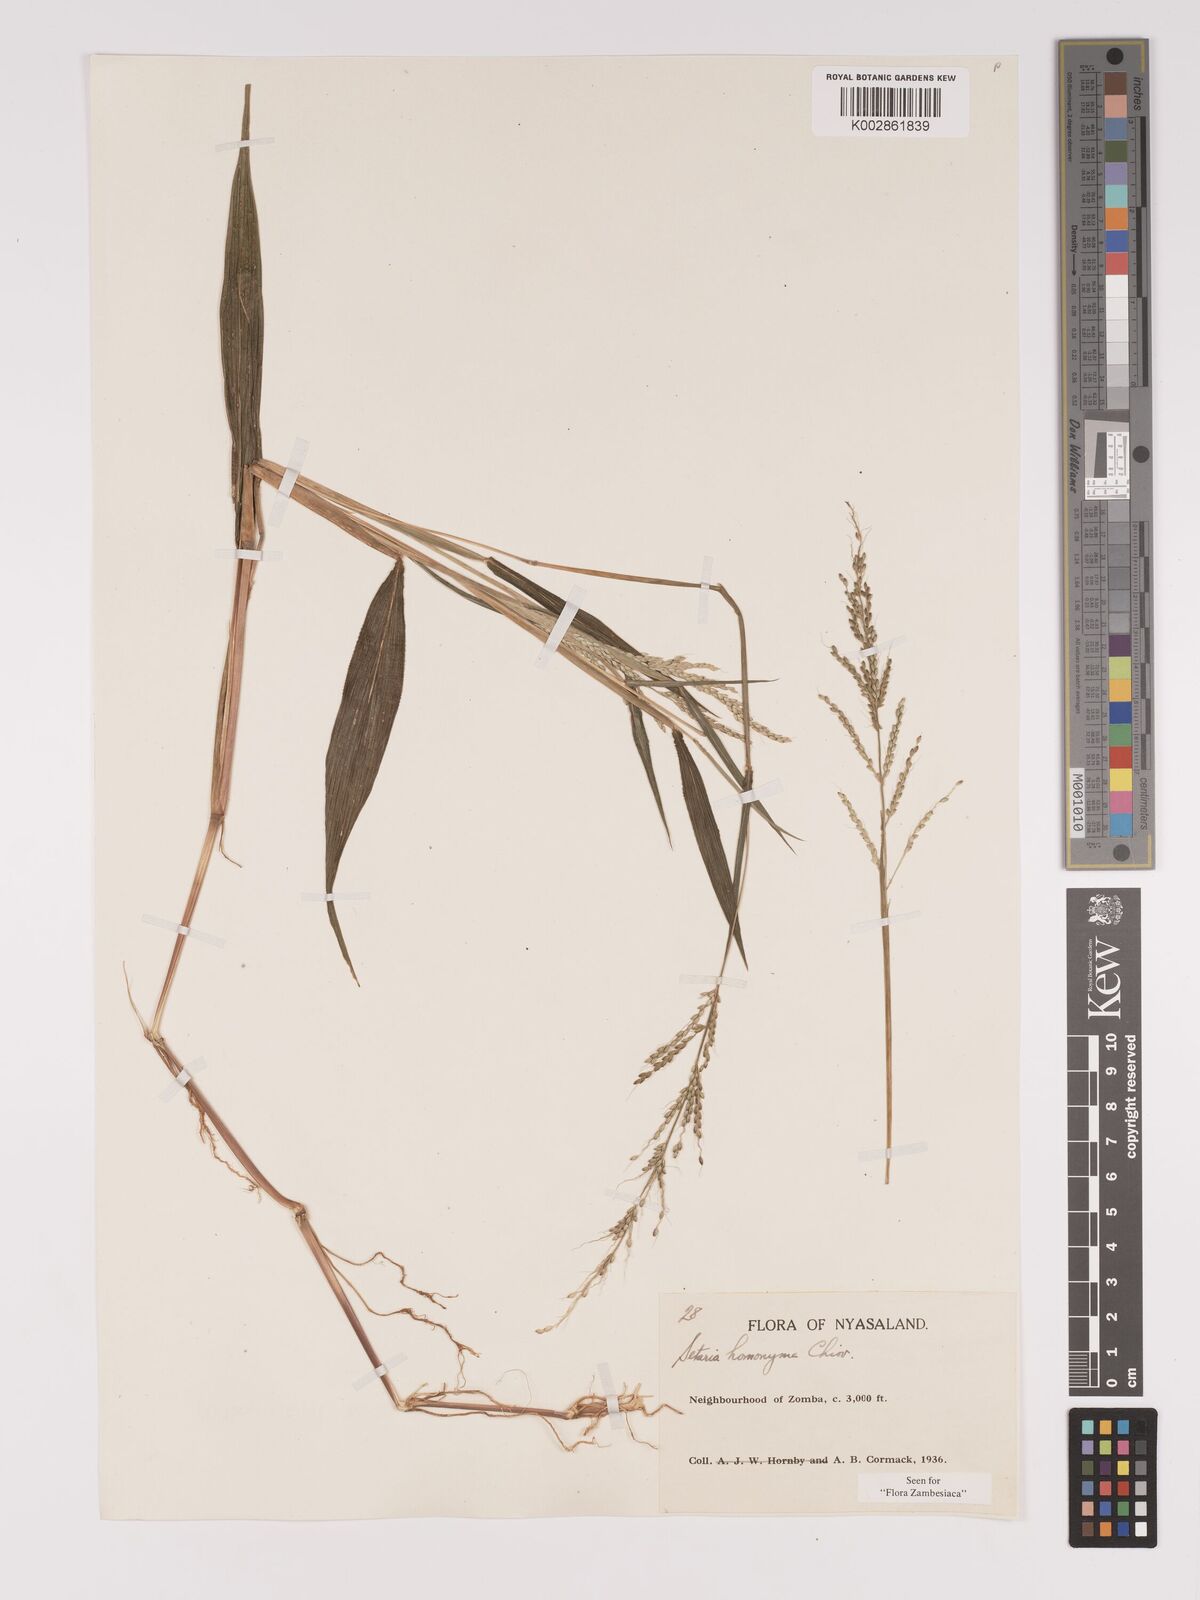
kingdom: Plantae
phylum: Tracheophyta
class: Liliopsida
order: Poales
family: Poaceae
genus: Setaria
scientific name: Setaria homonyma
